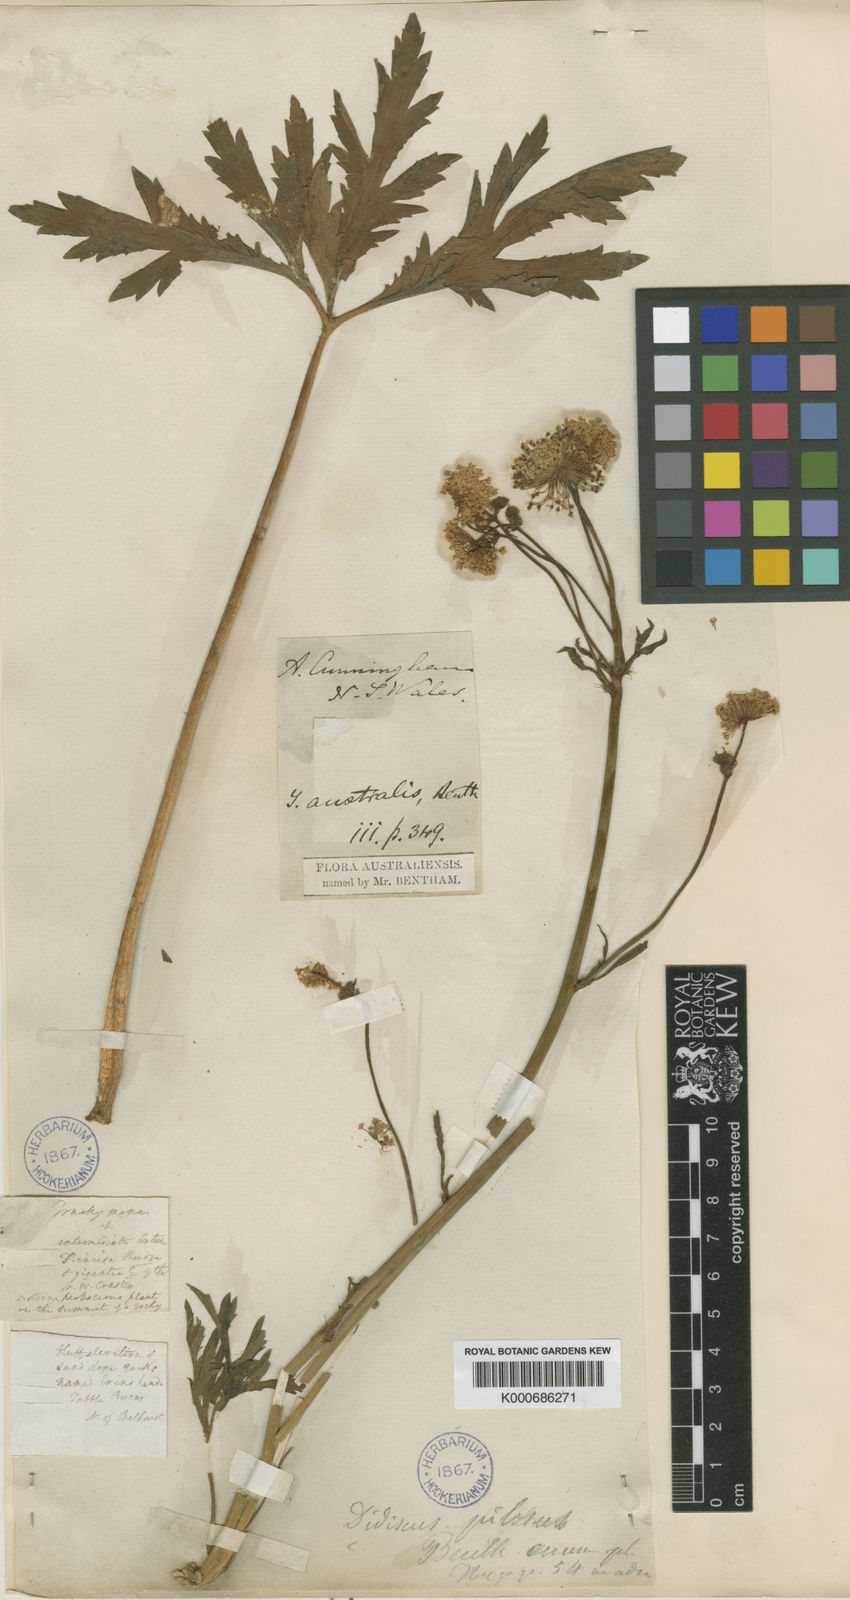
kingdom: Plantae
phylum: Tracheophyta
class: Magnoliopsida
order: Apiales
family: Araliaceae
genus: Trachymene
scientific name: Trachymene composita
